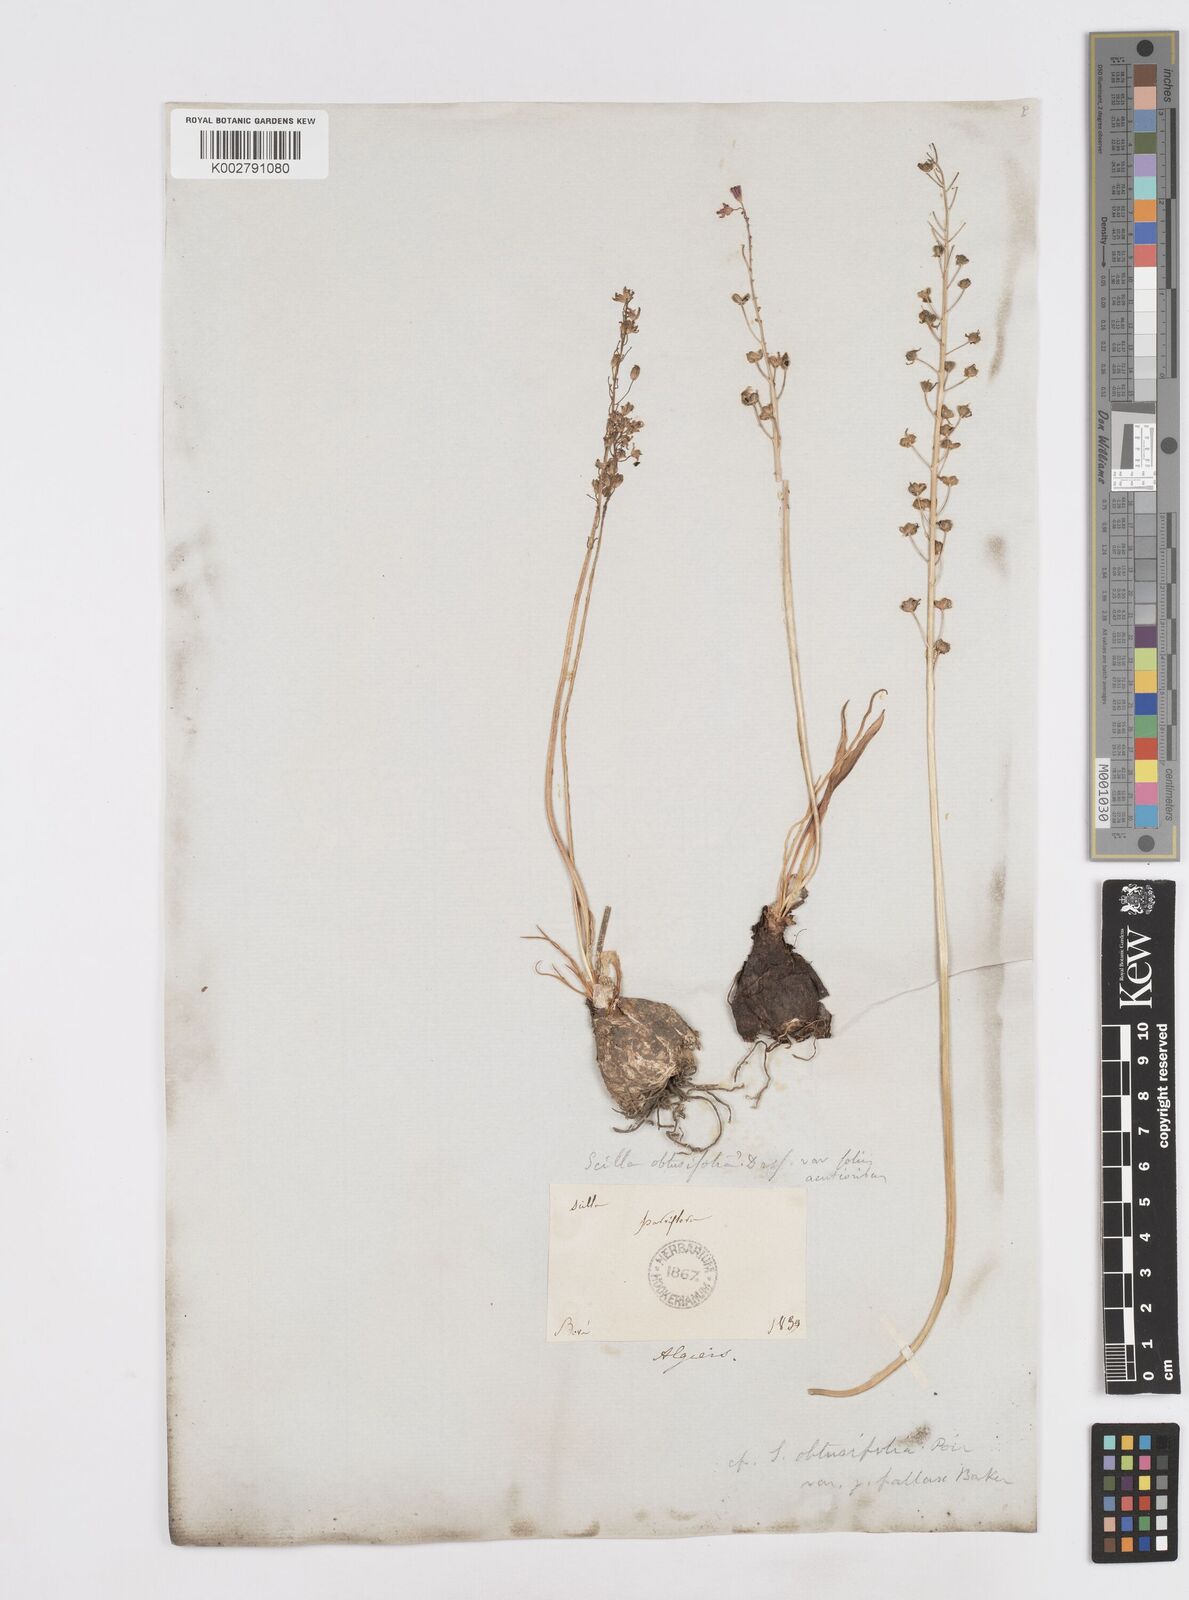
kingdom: Plantae
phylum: Tracheophyta
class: Liliopsida
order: Asparagales
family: Asparagaceae
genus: Prospero
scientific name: Prospero fallax
